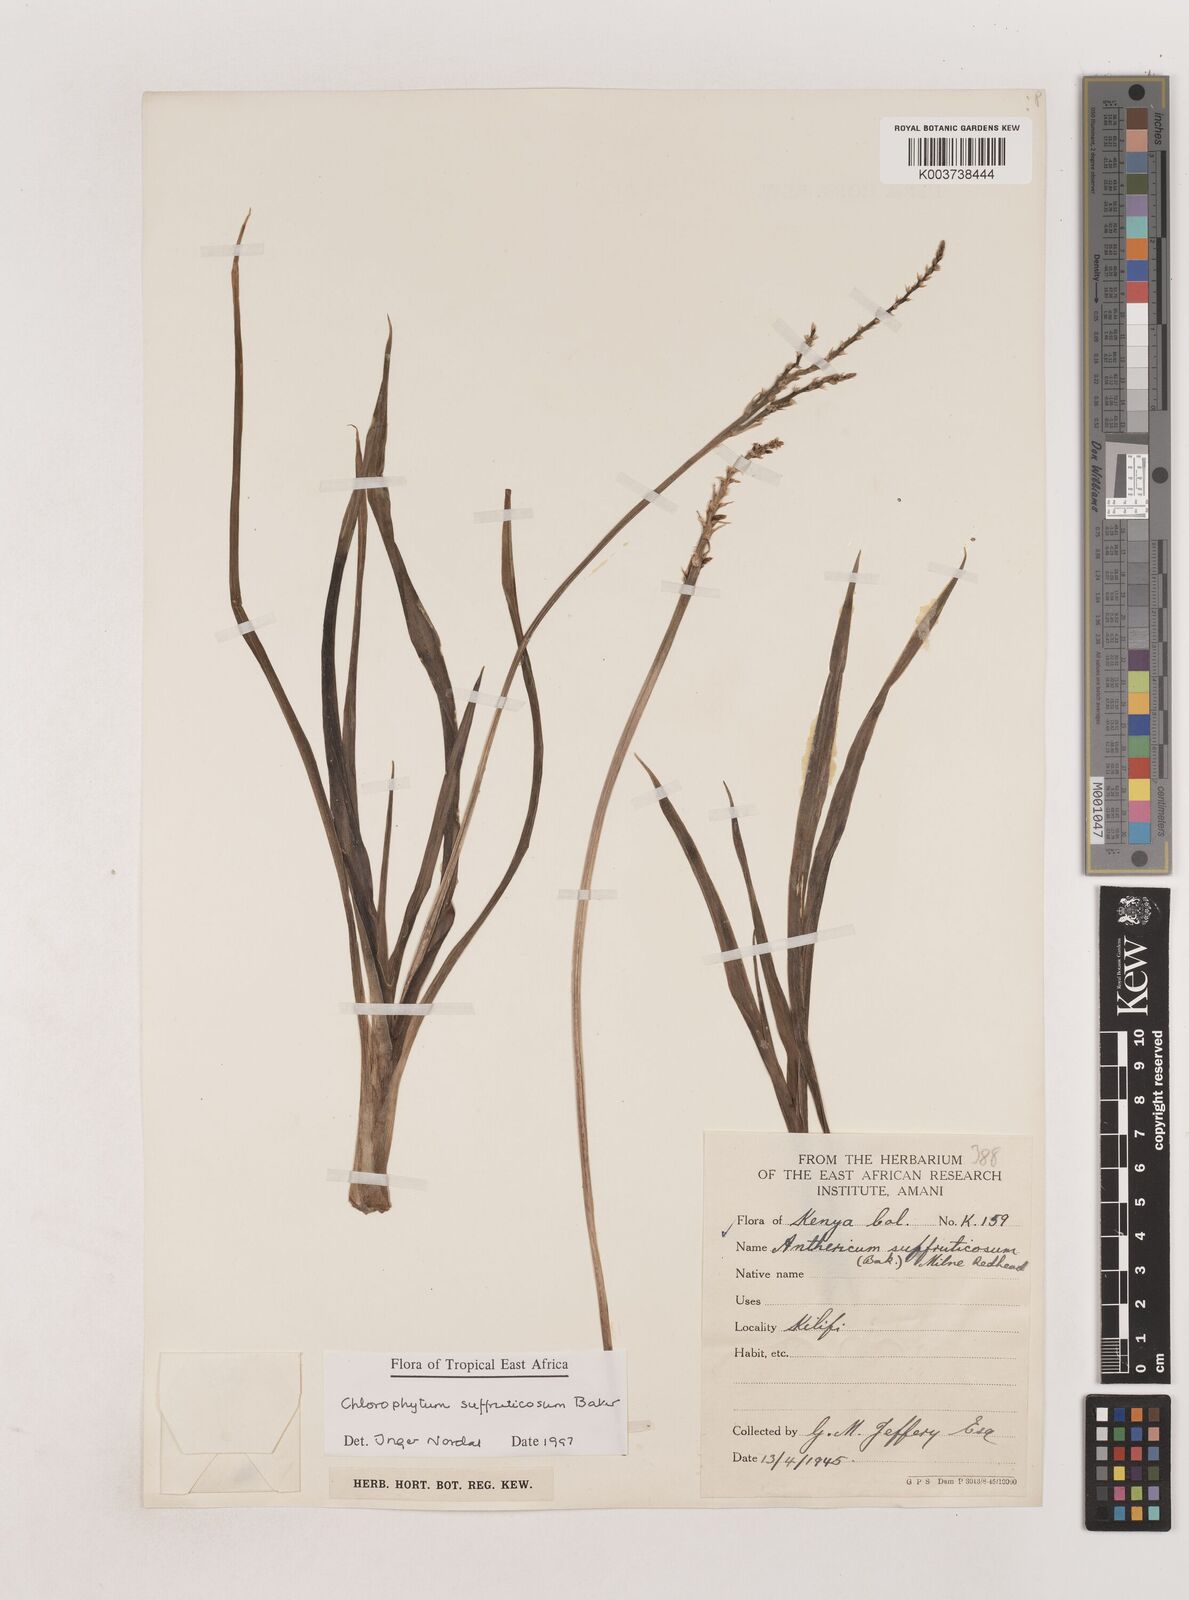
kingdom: Plantae
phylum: Tracheophyta
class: Liliopsida
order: Asparagales
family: Asparagaceae
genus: Chlorophytum
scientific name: Chlorophytum suffruticosum
